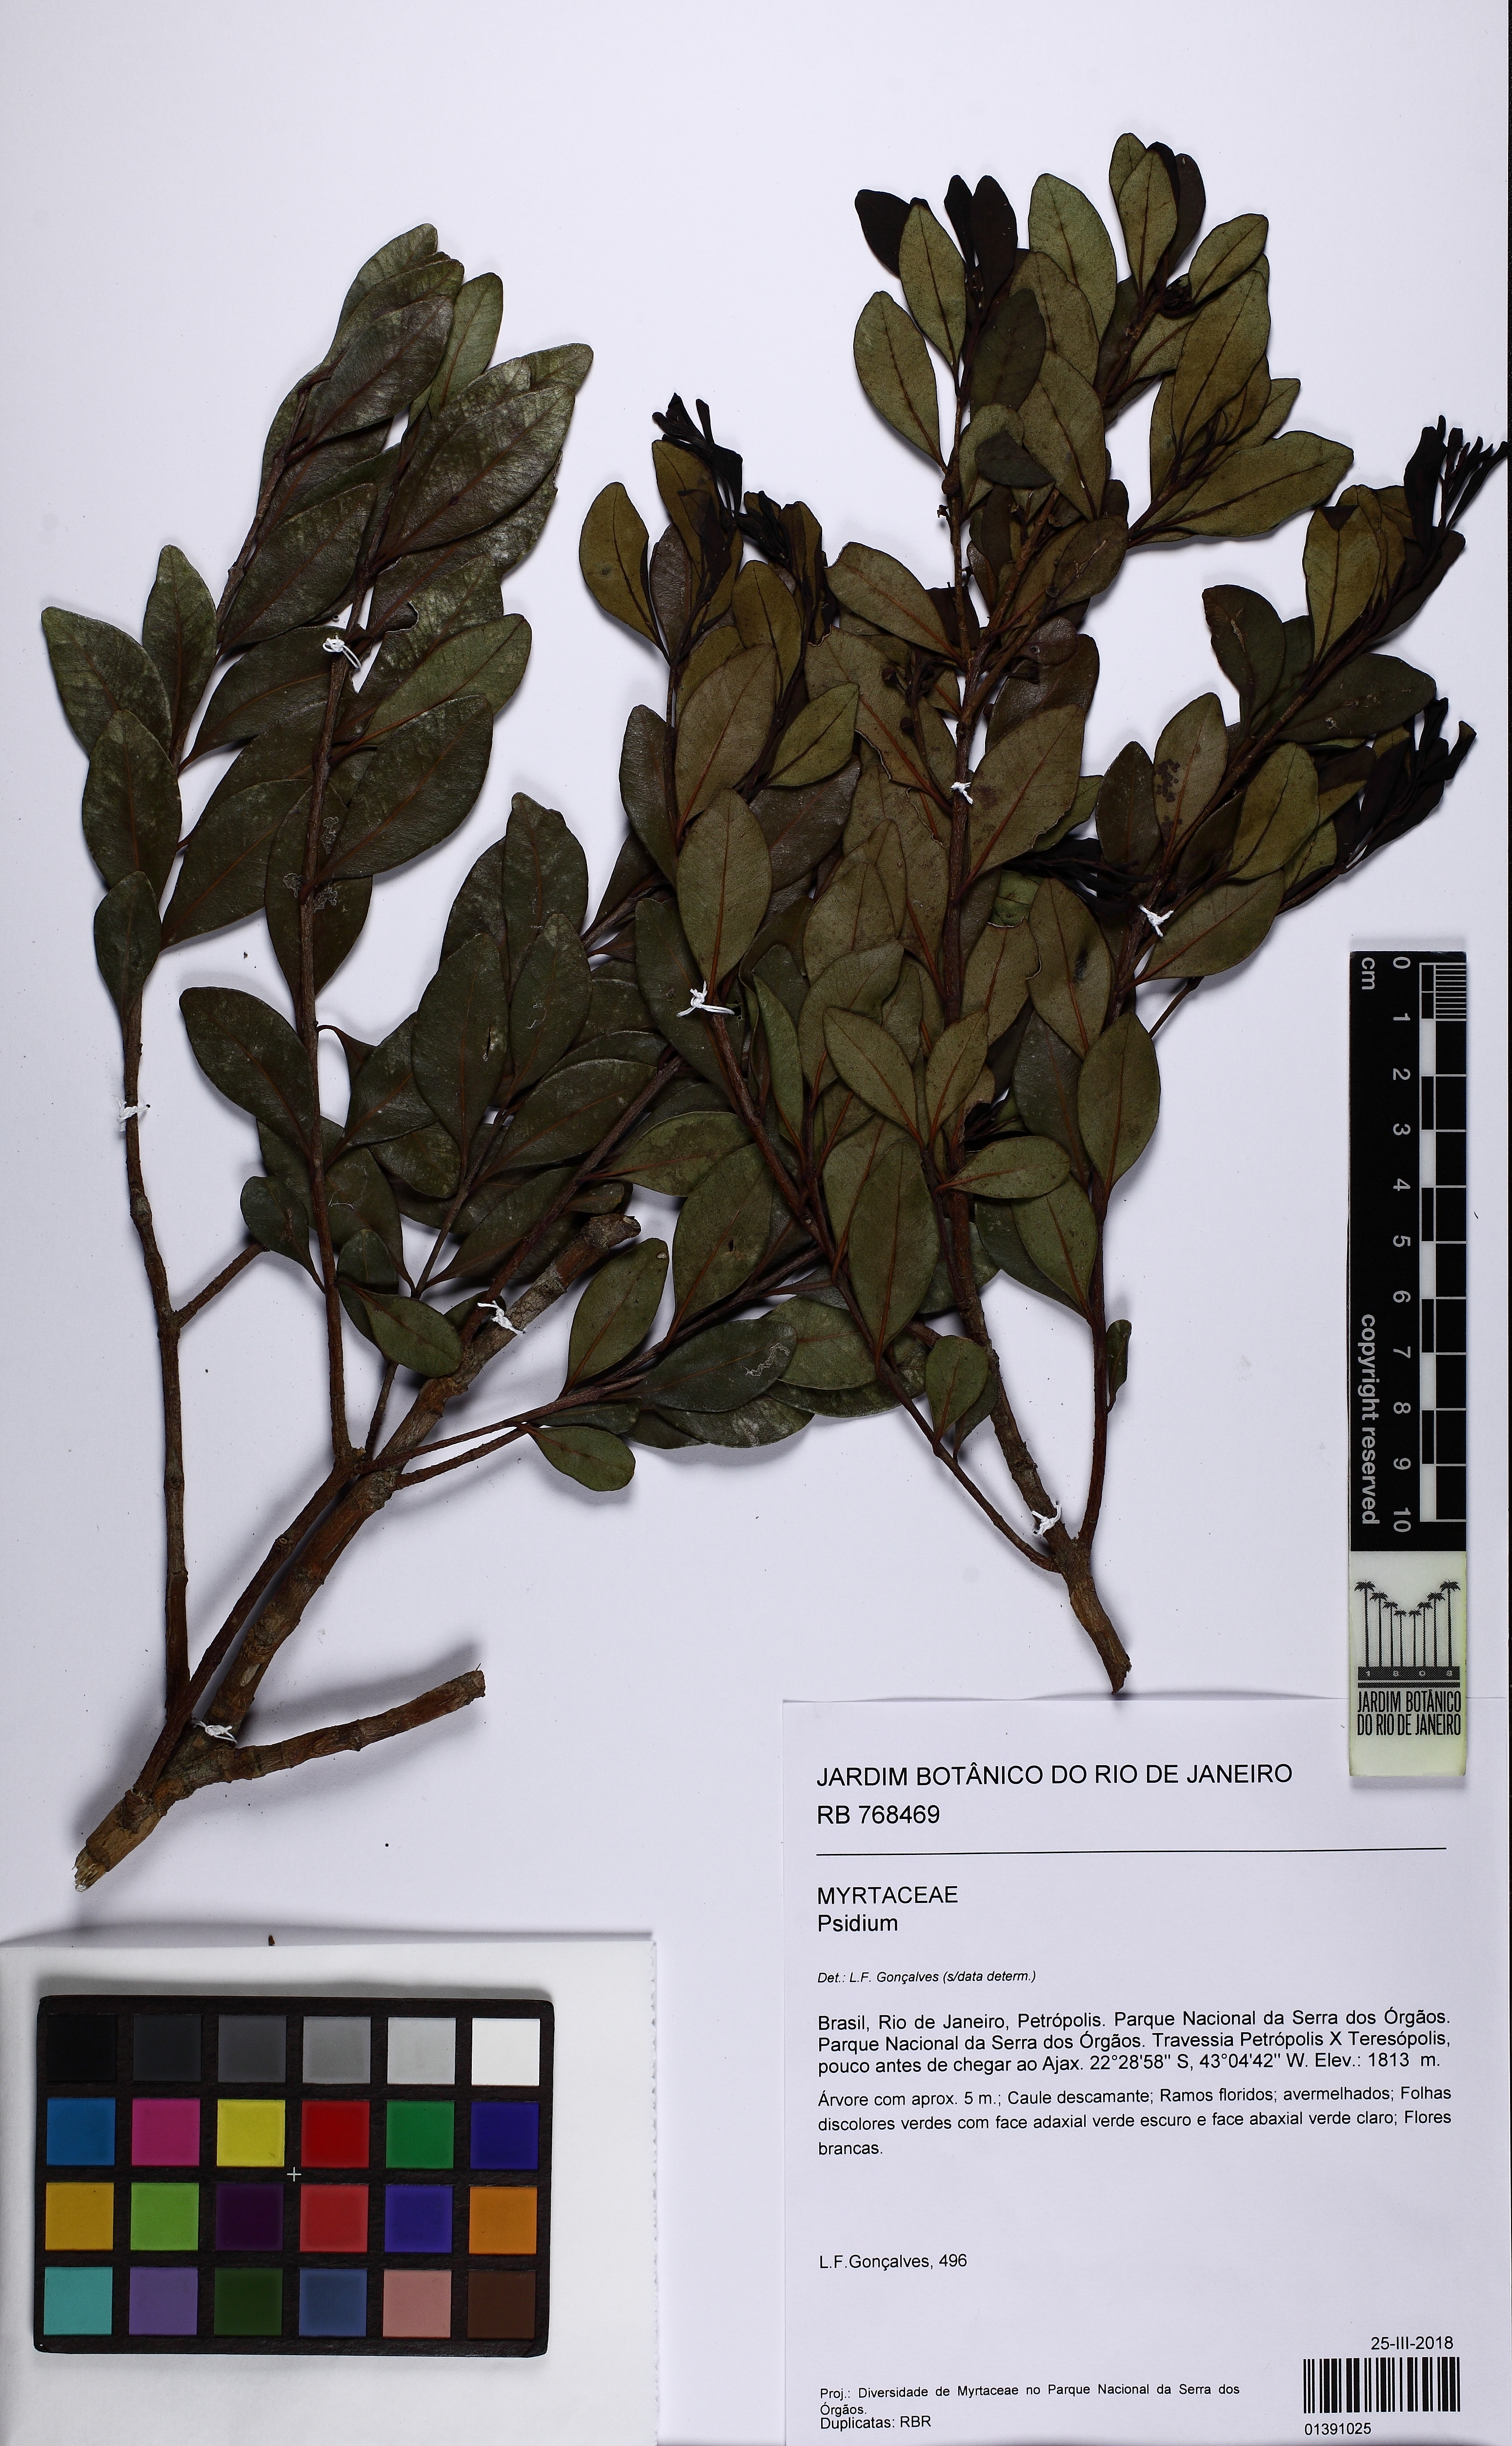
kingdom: Plantae
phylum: Tracheophyta
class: Magnoliopsida
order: Myrtales
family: Myrtaceae
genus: Psidium
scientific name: Psidium ovale
